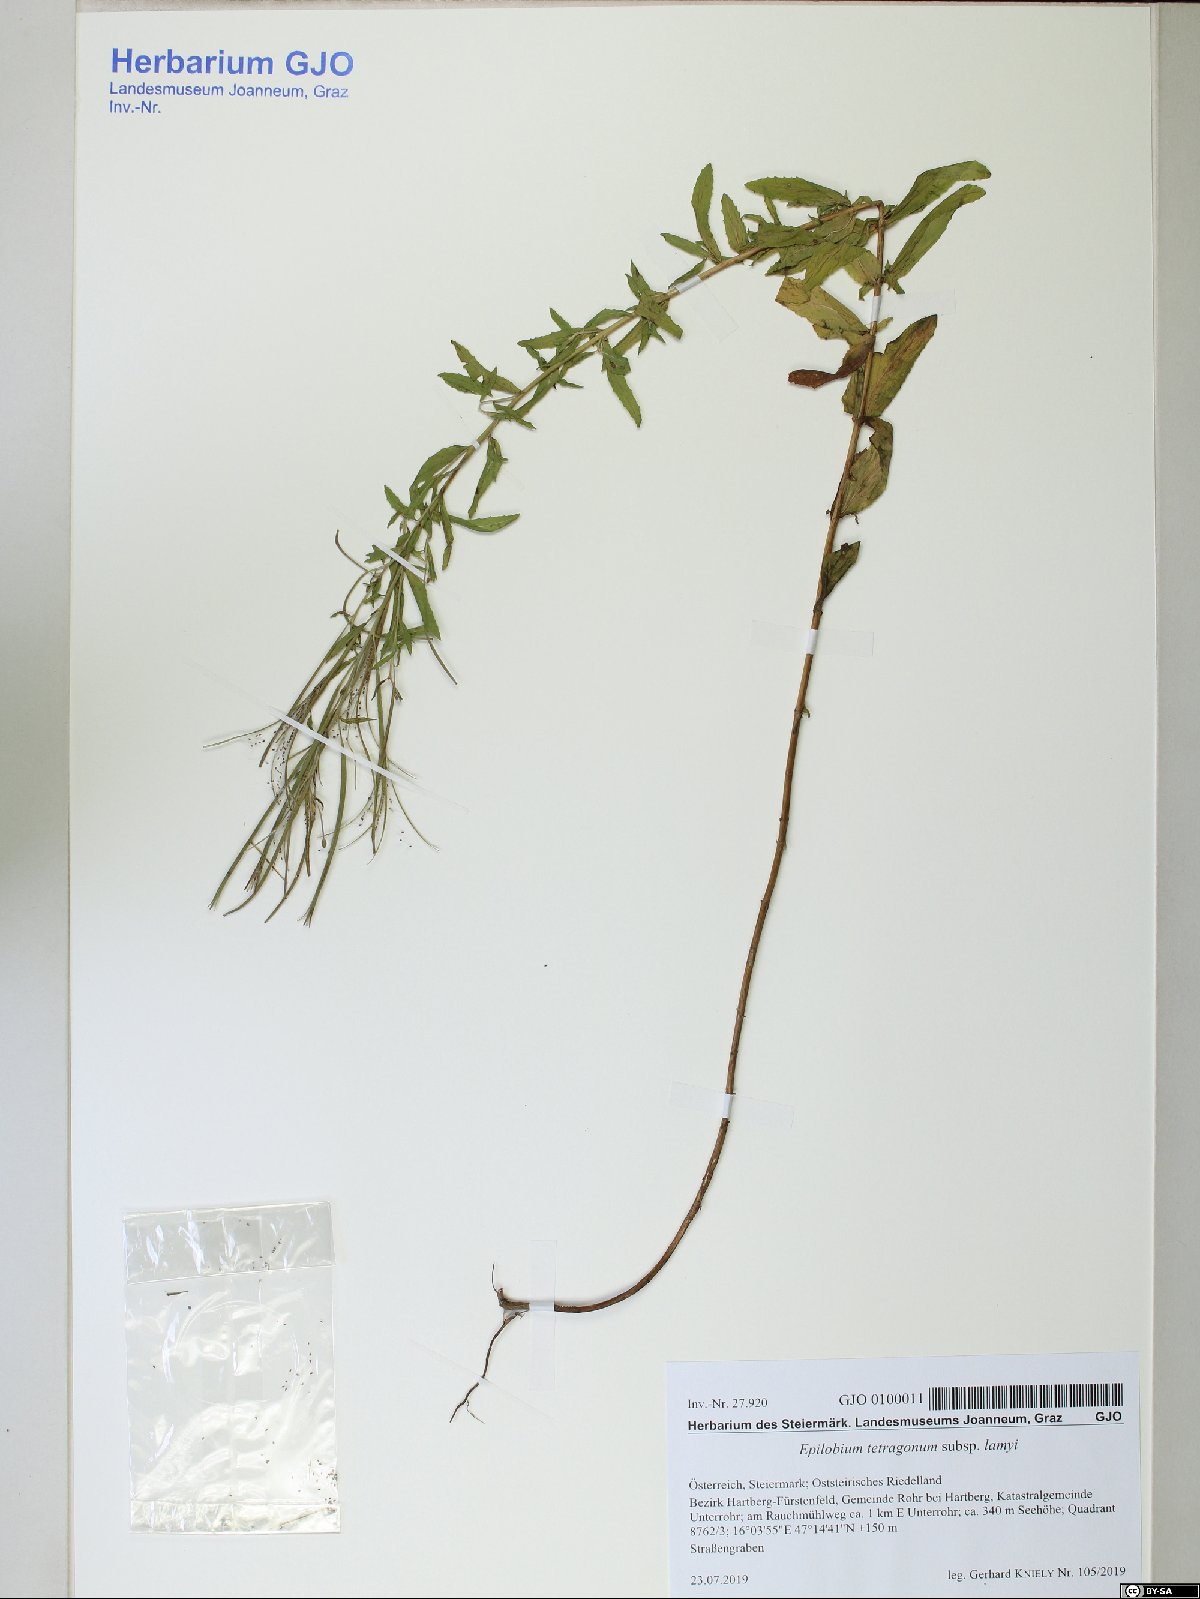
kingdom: Plantae
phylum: Tracheophyta
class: Magnoliopsida
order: Myrtales
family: Onagraceae
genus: Epilobium
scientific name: Epilobium lamyi
